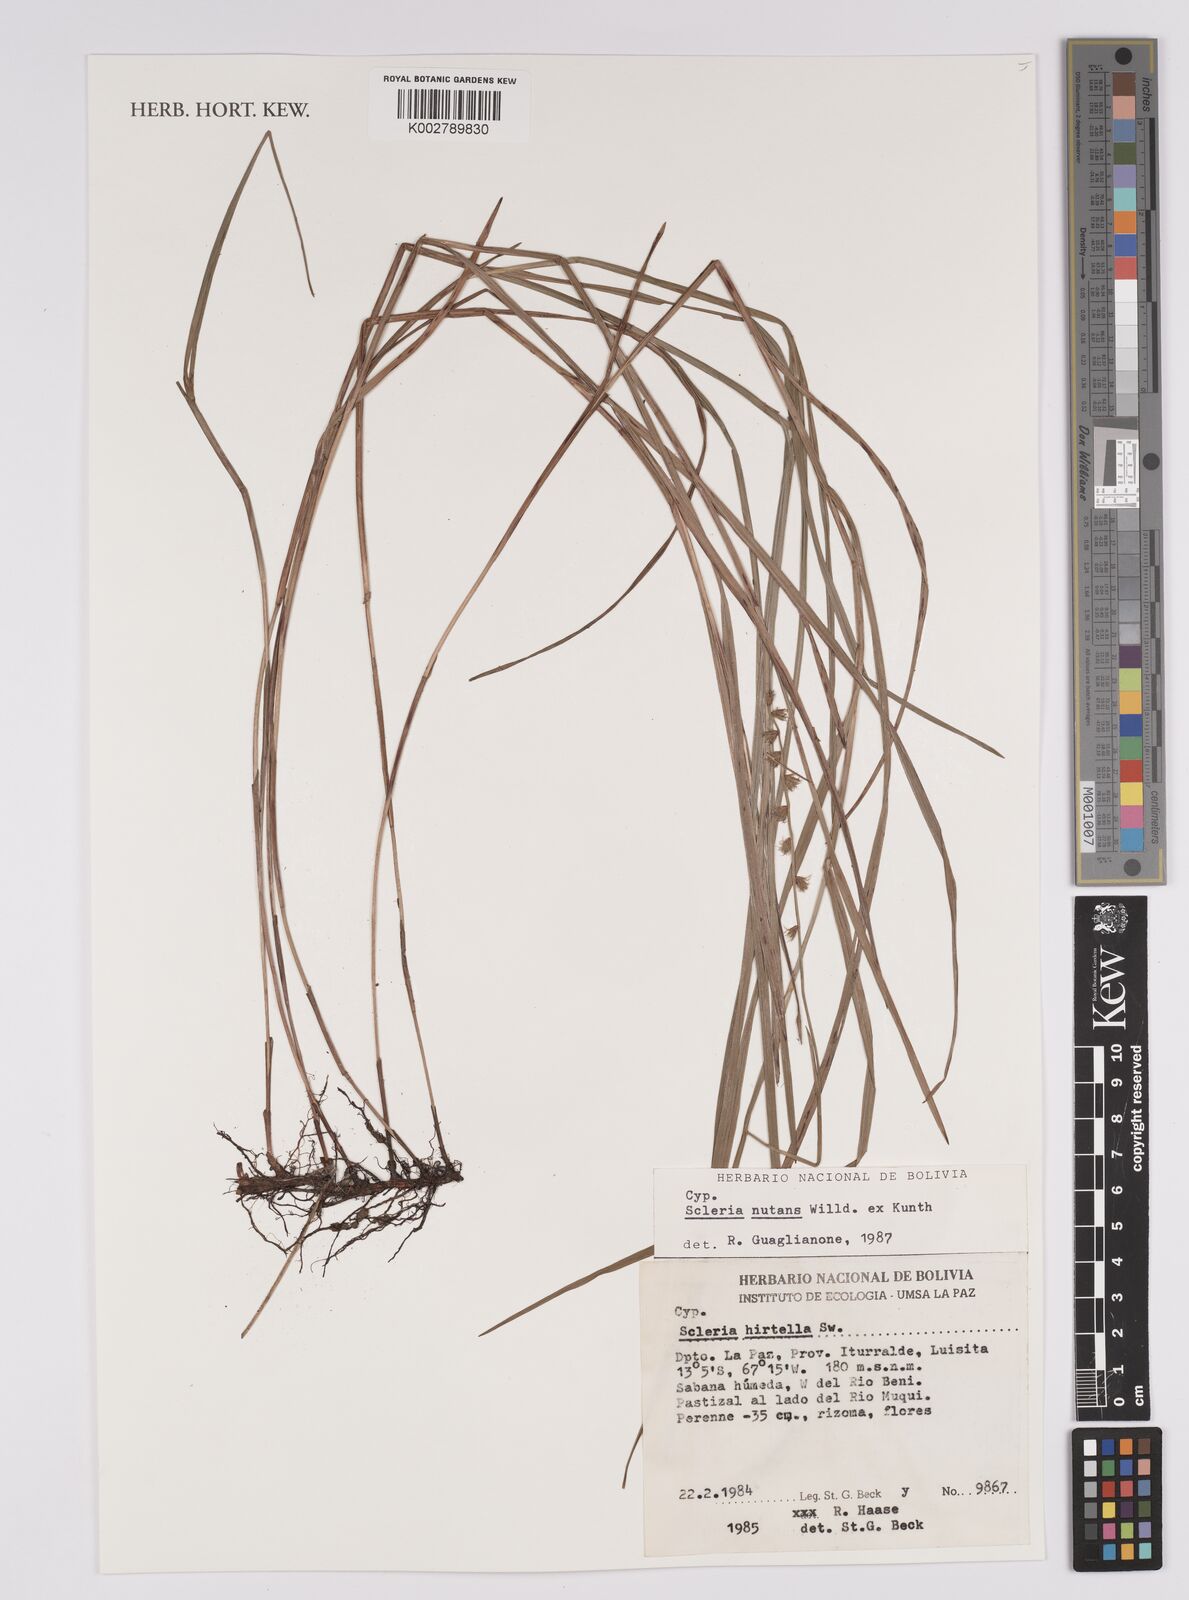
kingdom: Plantae
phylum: Tracheophyta
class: Liliopsida
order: Poales
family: Cyperaceae
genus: Scleria
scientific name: Scleria
